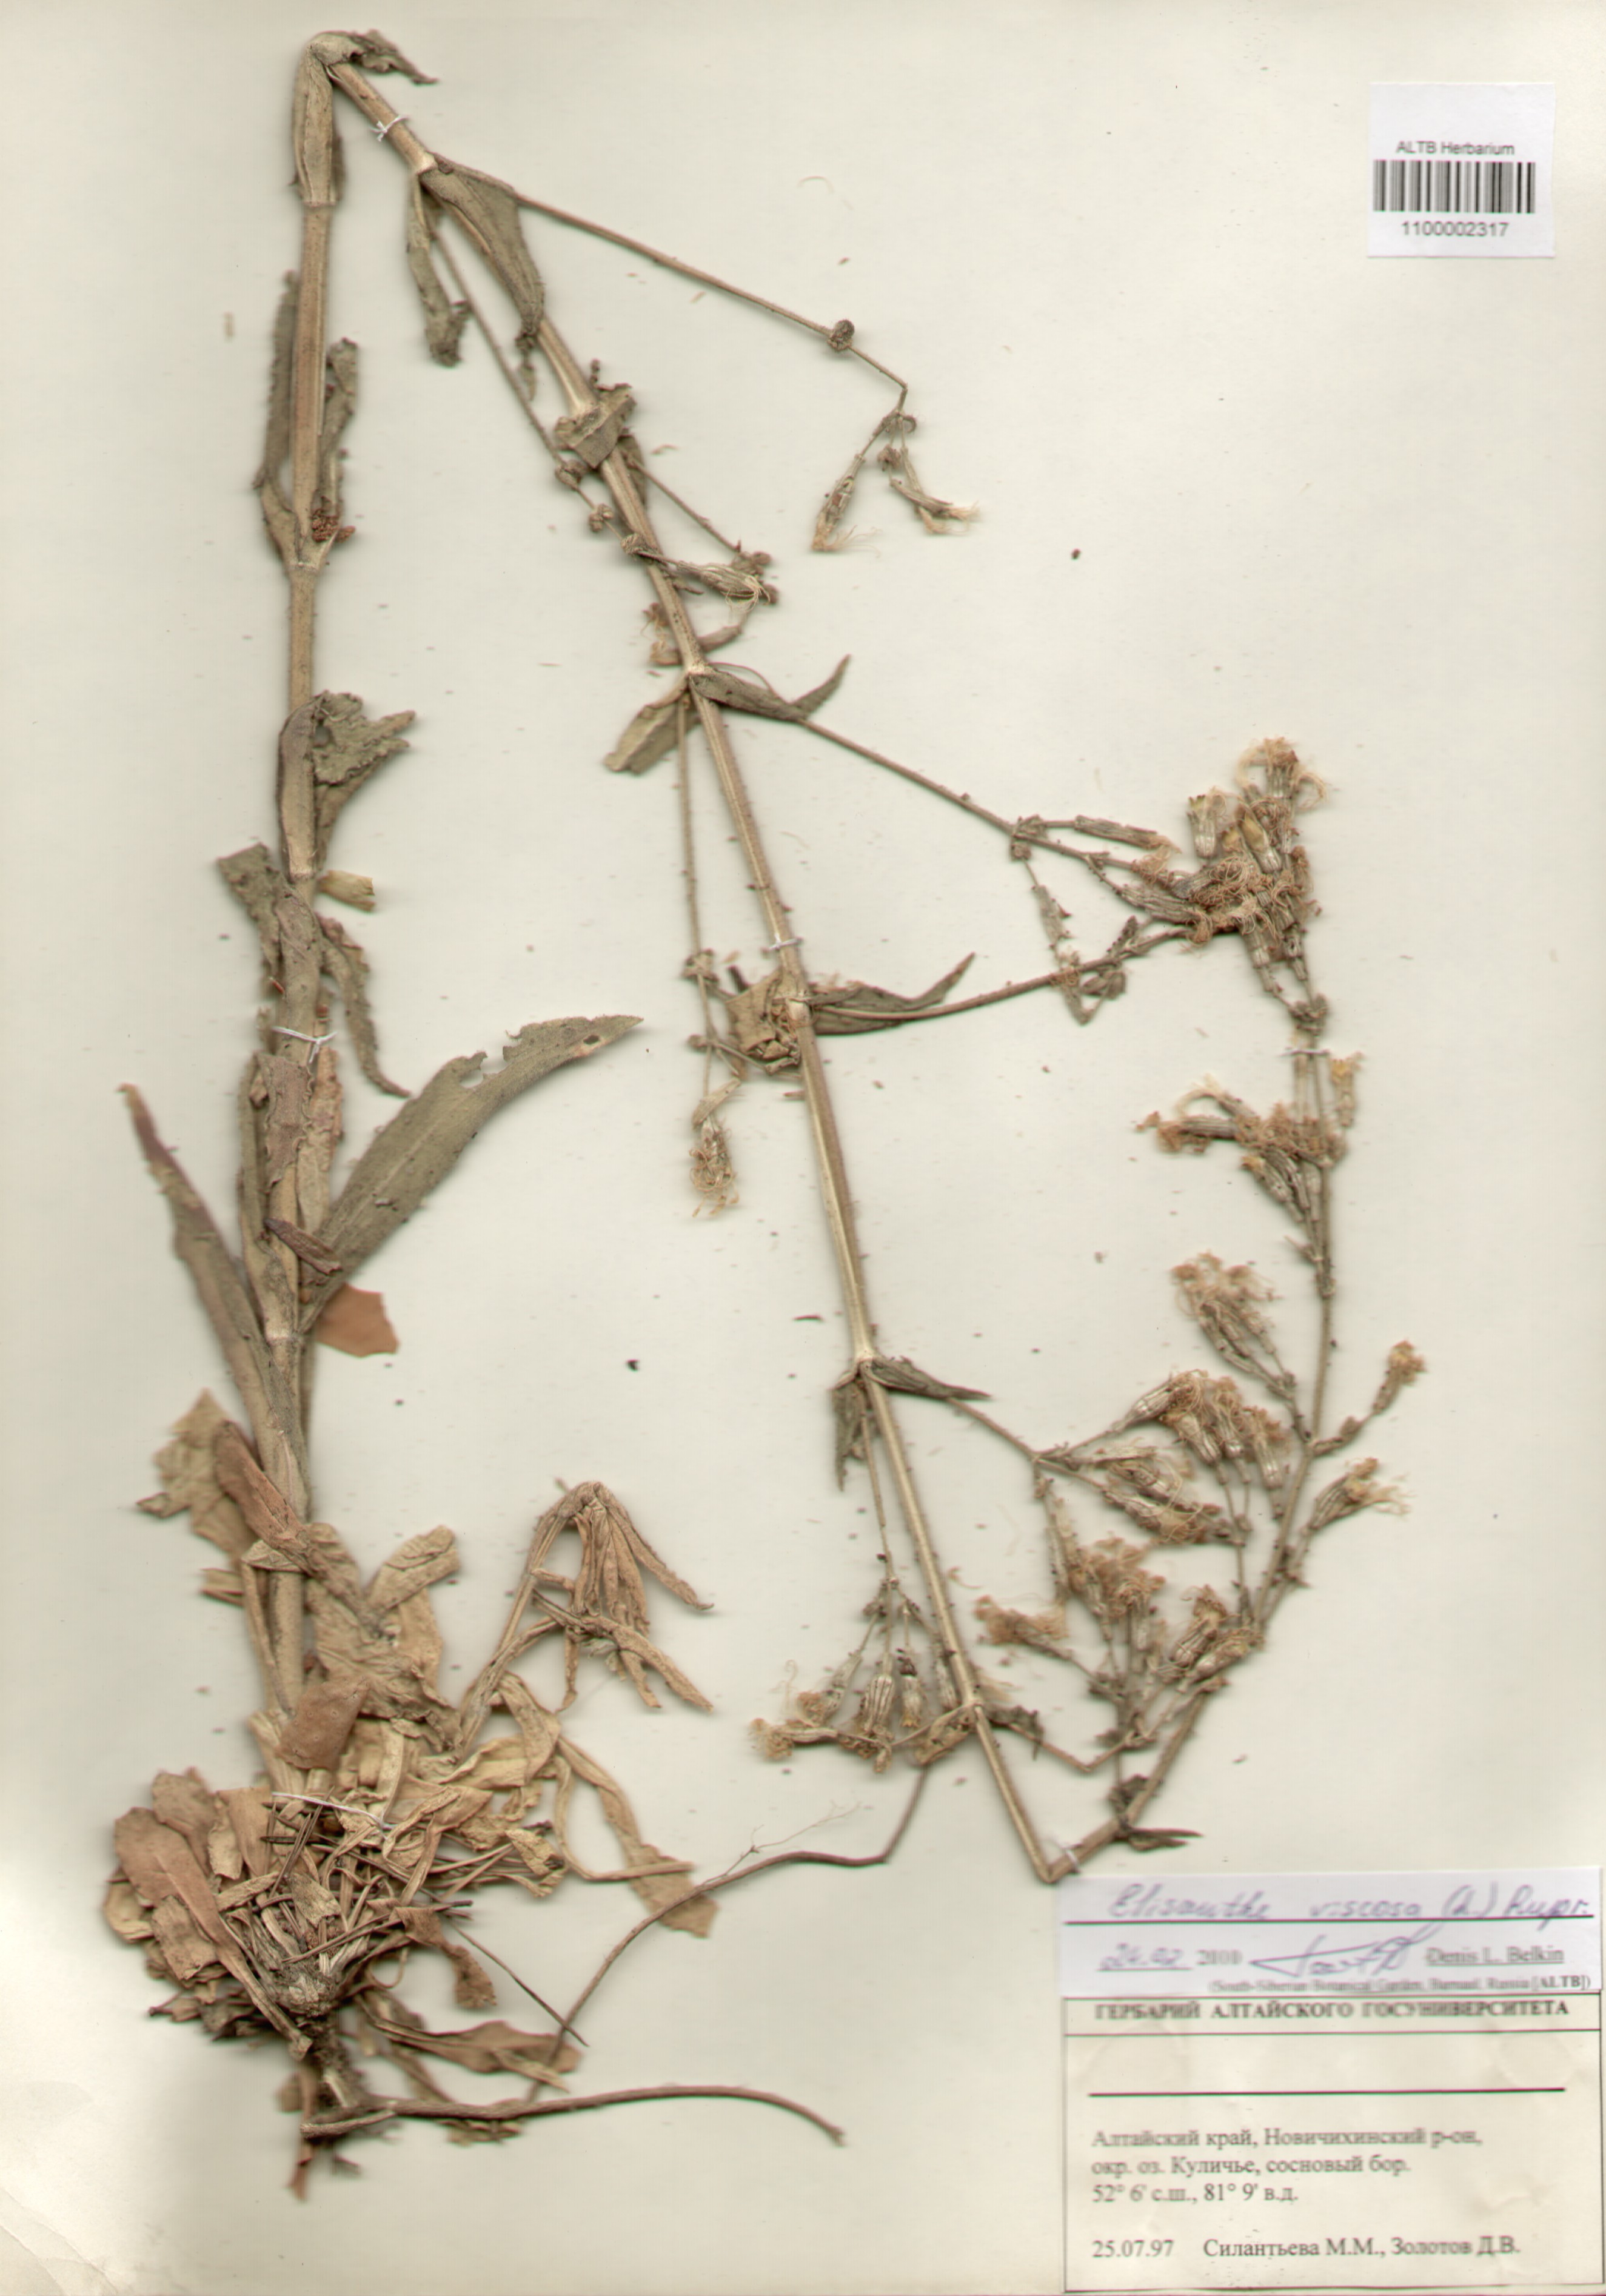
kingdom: Plantae
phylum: Tracheophyta
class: Magnoliopsida
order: Caryophyllales
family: Caryophyllaceae
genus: Silene
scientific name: Silene viscosa
